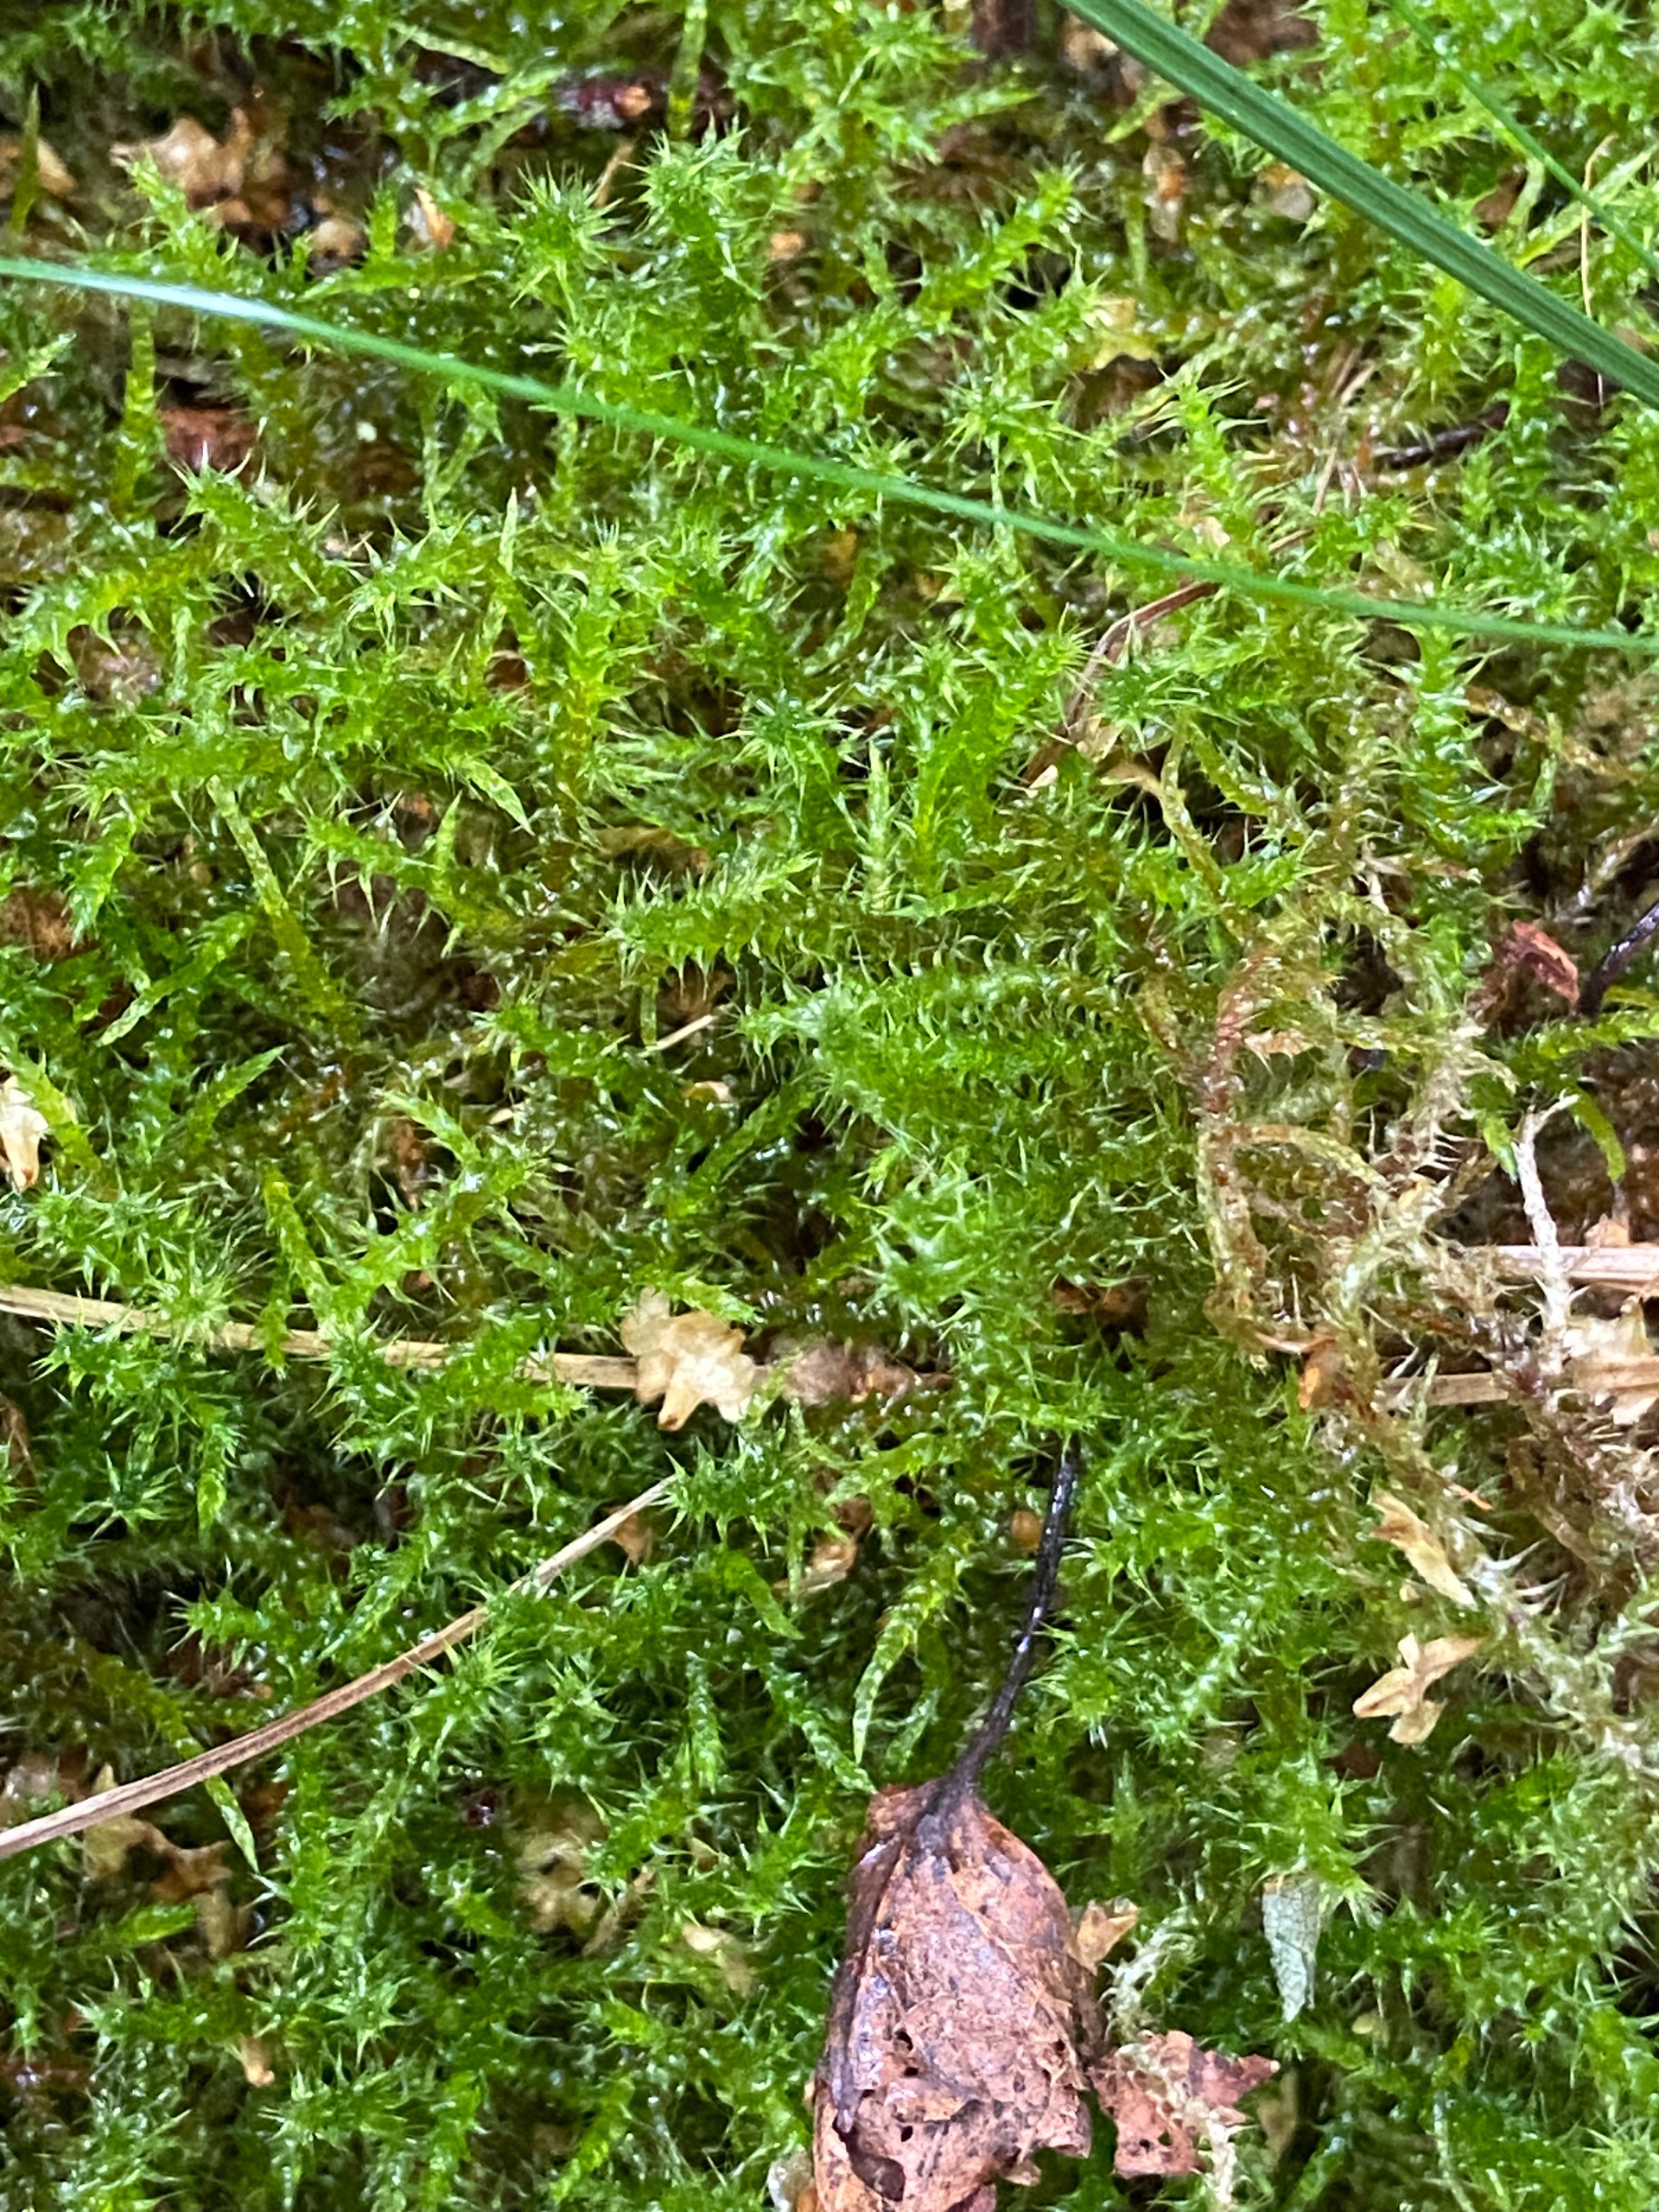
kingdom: Plantae
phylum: Bryophyta
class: Bryopsida
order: Hypnales
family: Hylocomiaceae
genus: Rhytidiadelphus
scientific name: Rhytidiadelphus squarrosus
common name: Plæne-kransemos
